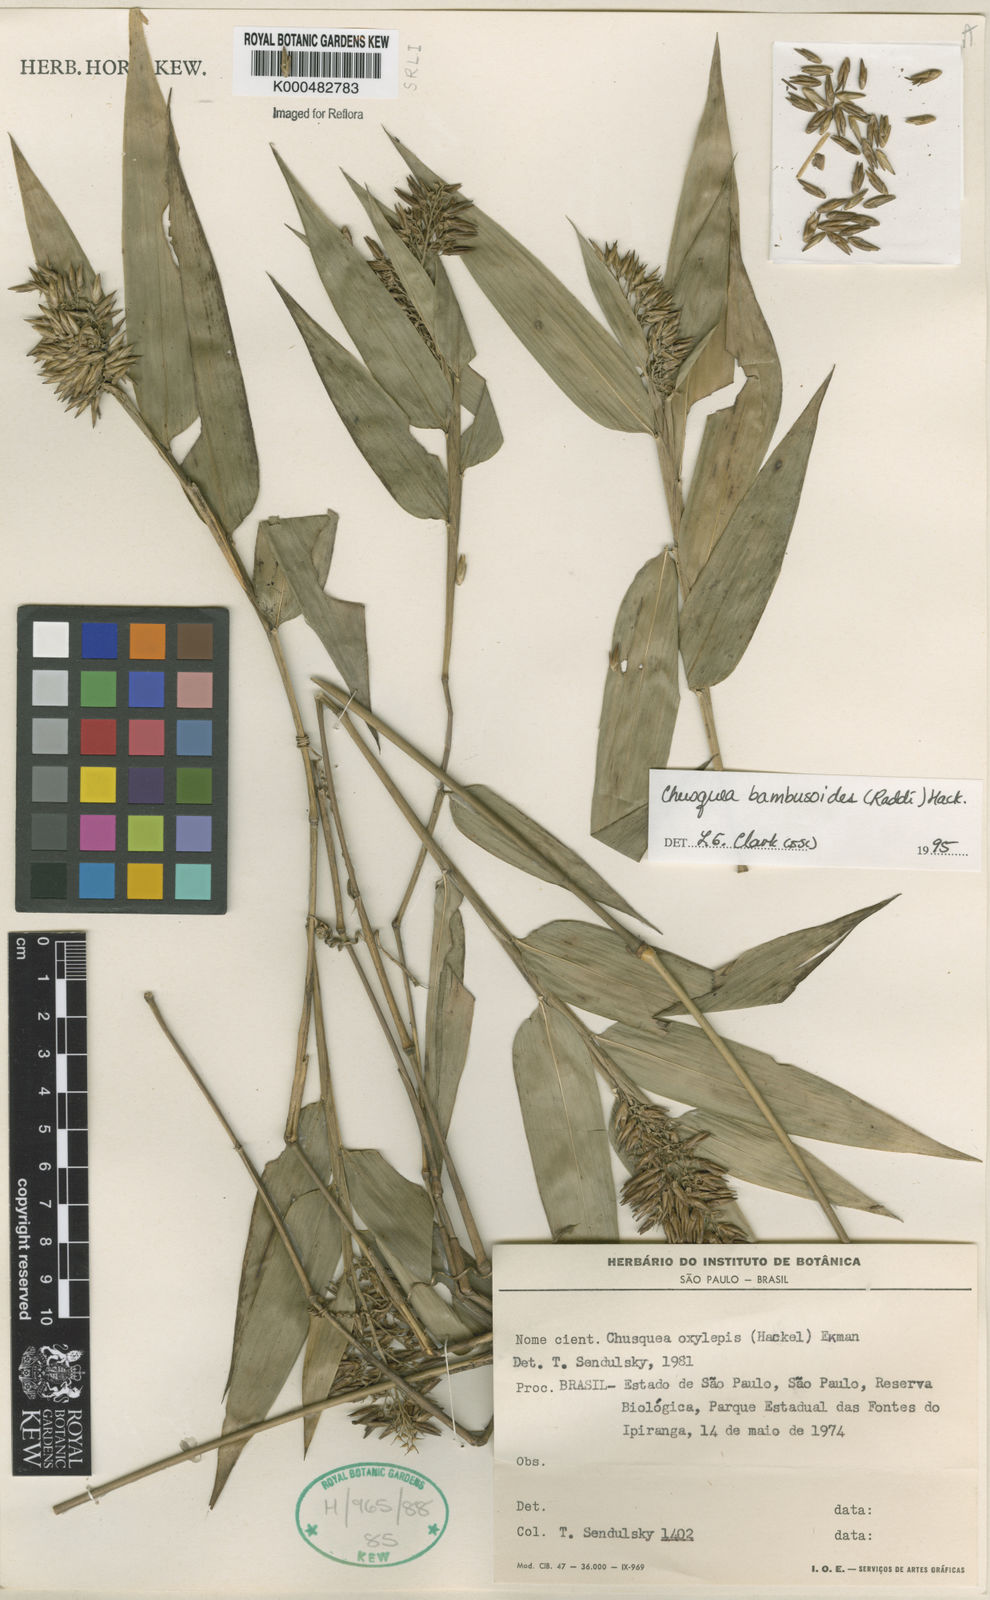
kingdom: Plantae
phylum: Tracheophyta
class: Liliopsida
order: Poales
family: Poaceae
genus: Chusquea
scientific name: Chusquea bambusoides
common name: Brazil scrambling bamboo
